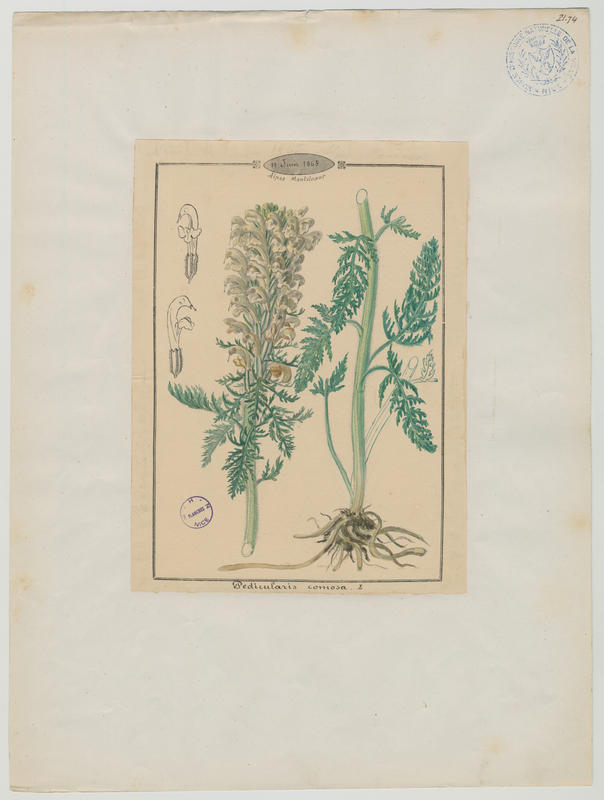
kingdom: Plantae
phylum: Tracheophyta
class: Magnoliopsida
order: Lamiales
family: Orobanchaceae
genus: Pedicularis
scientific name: Pedicularis comosa
